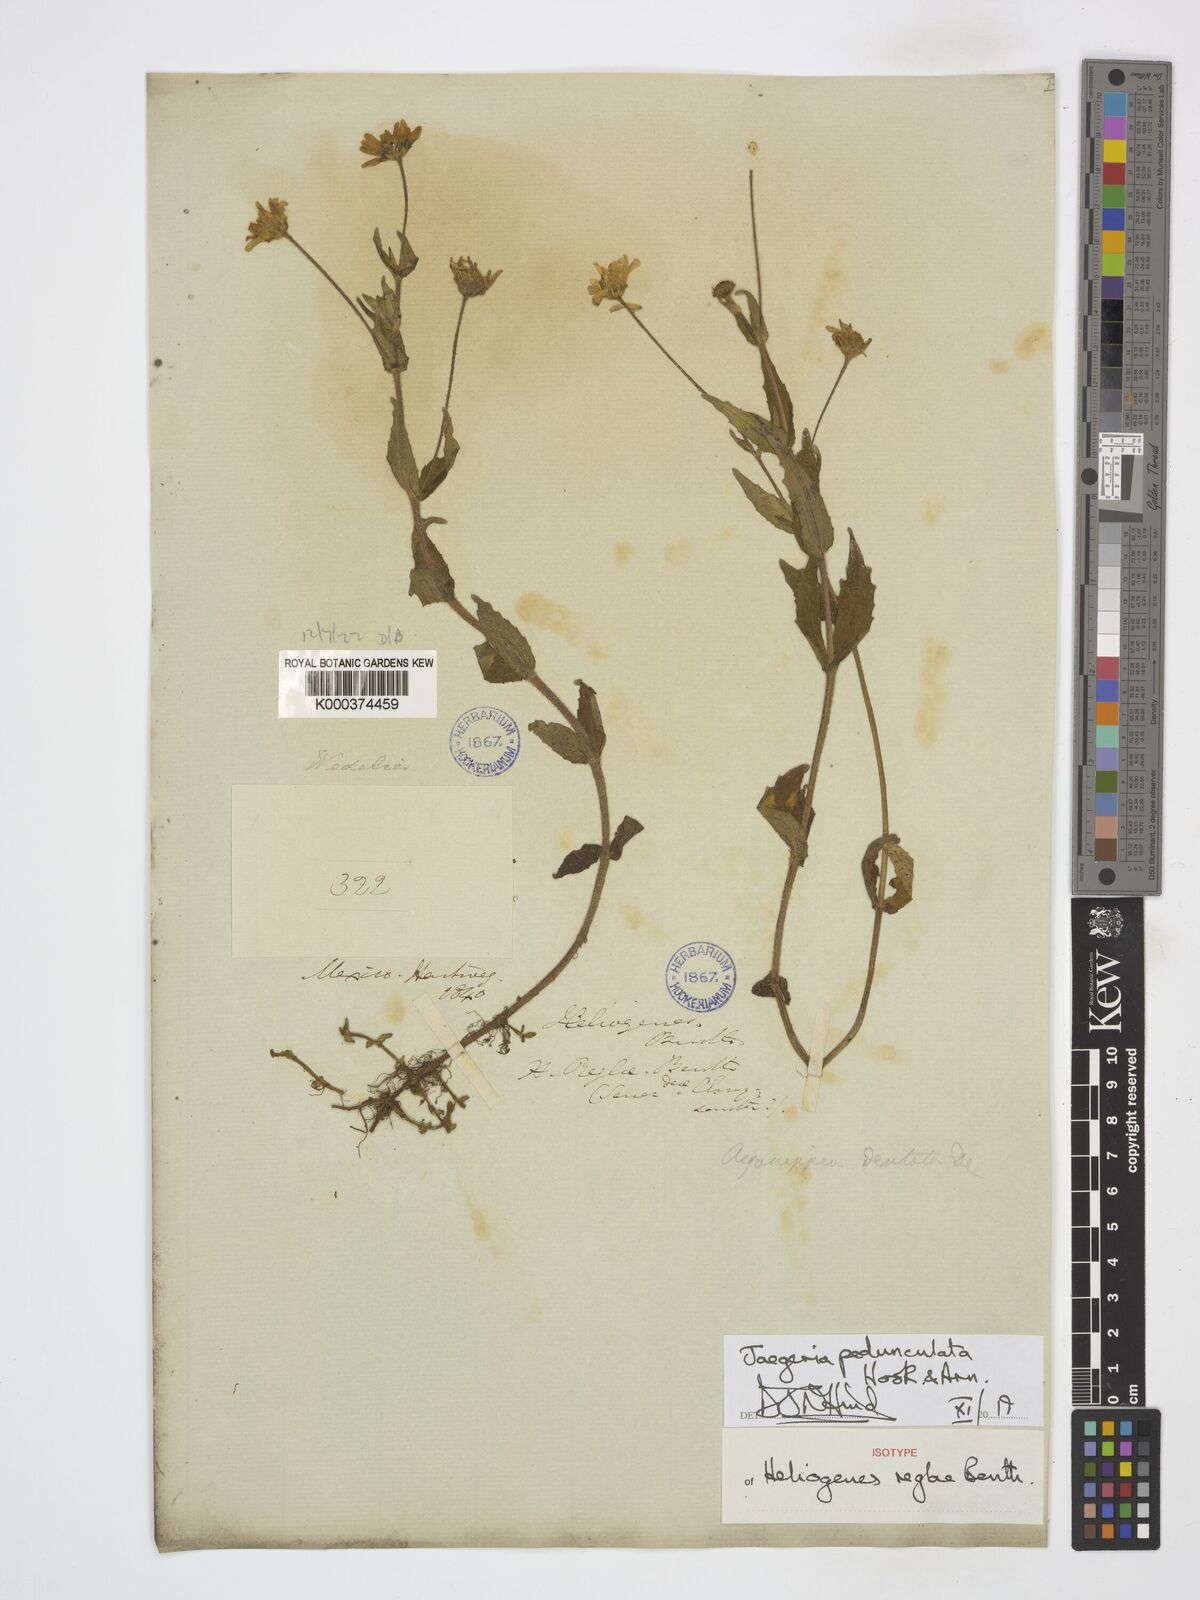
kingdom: Plantae
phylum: Tracheophyta
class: Magnoliopsida
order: Asterales
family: Asteraceae
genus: Jaegeria
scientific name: Jaegeria pedunculata
